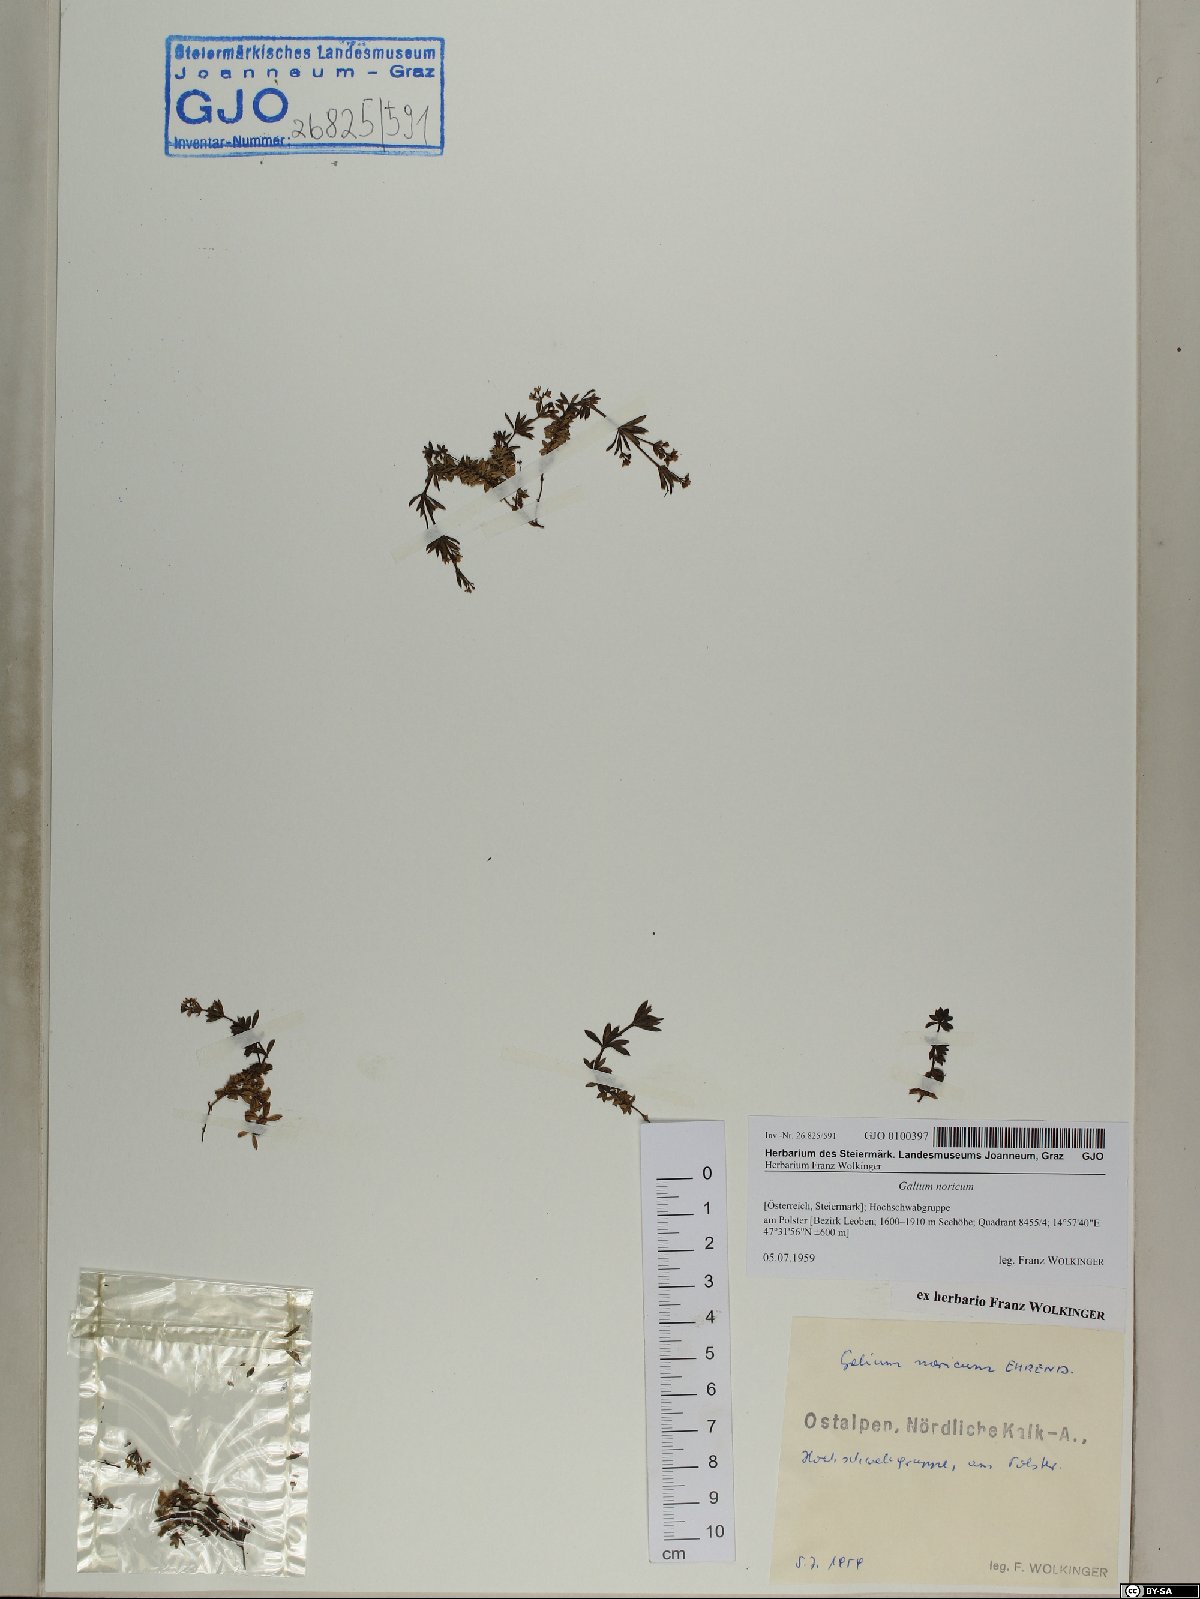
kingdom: Plantae
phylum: Tracheophyta
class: Magnoliopsida
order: Gentianales
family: Rubiaceae
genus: Galium
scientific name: Galium noricum
